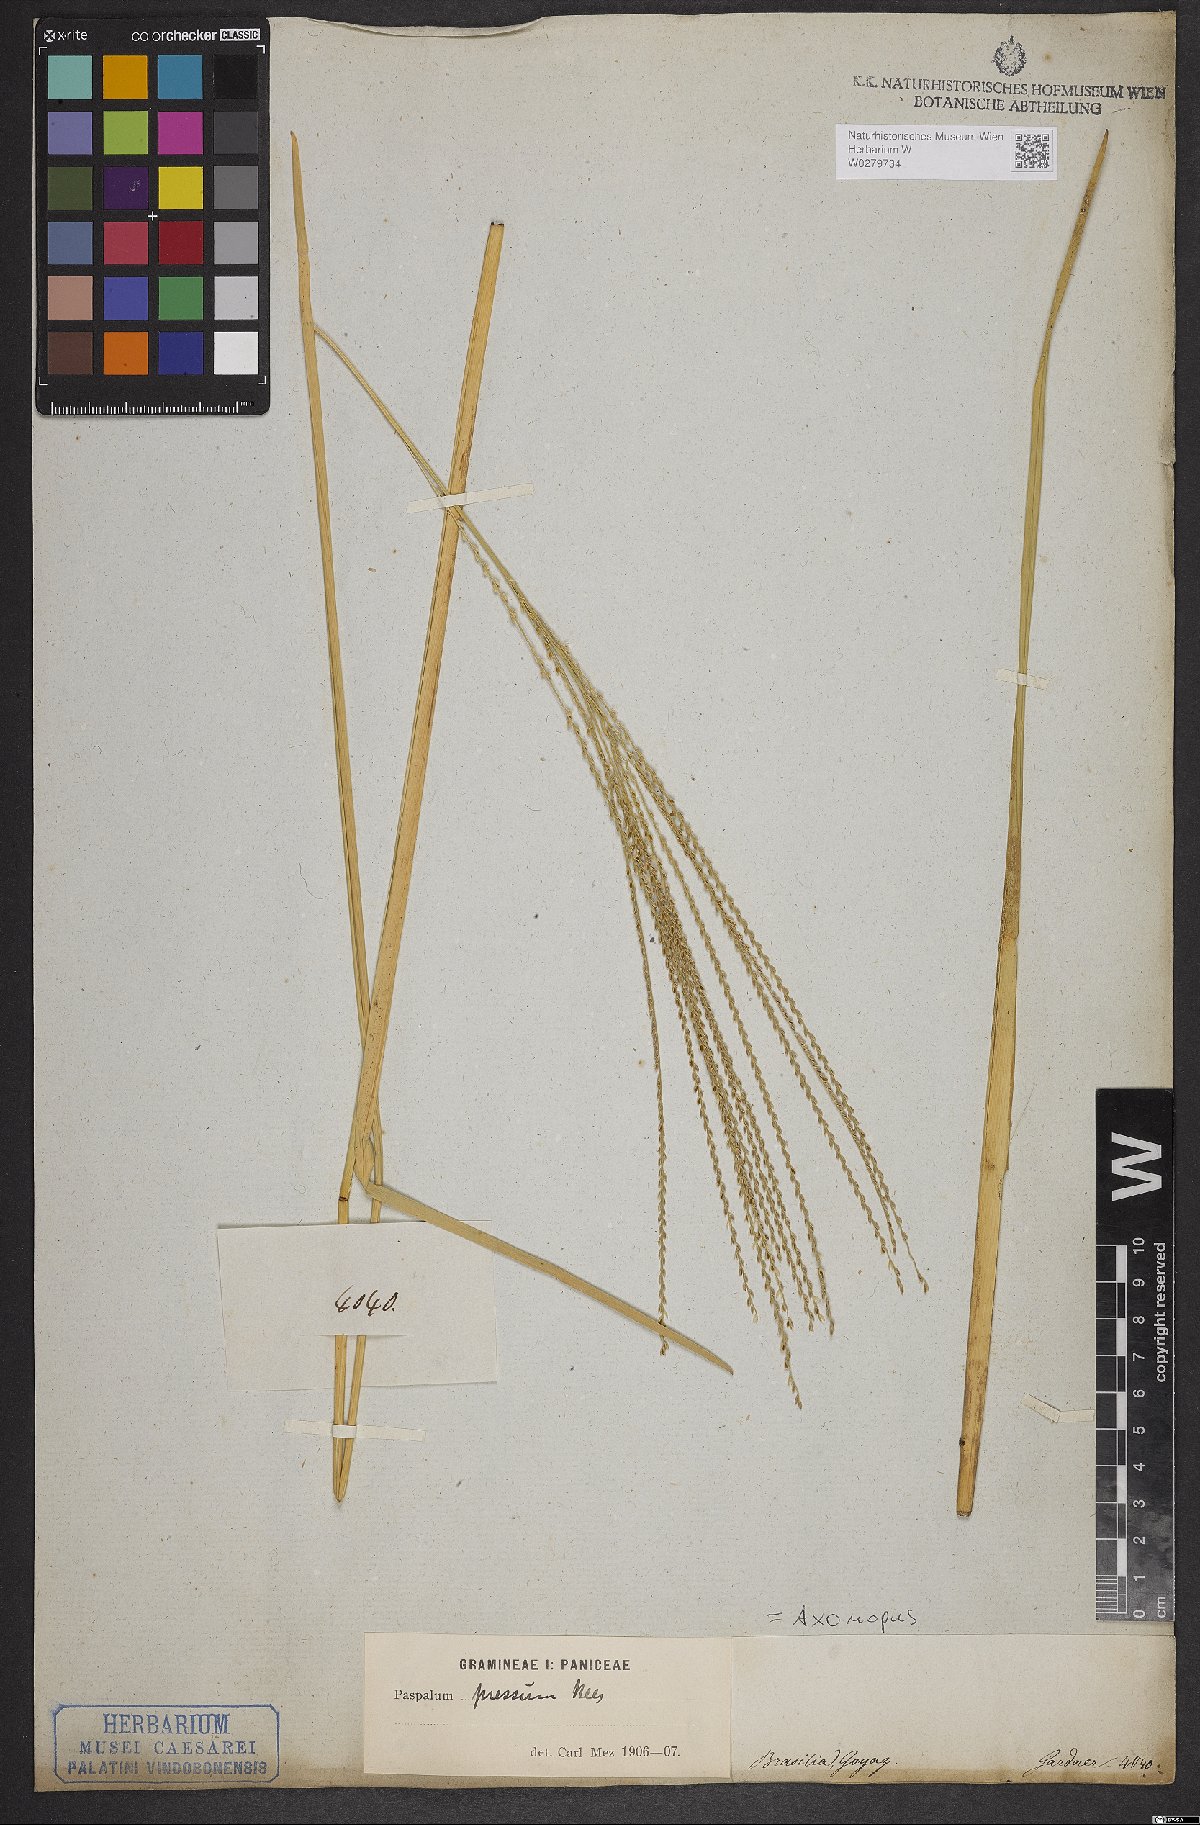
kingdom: Plantae
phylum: Tracheophyta
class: Liliopsida
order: Poales
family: Poaceae
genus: Axonopus
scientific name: Axonopus pressus
